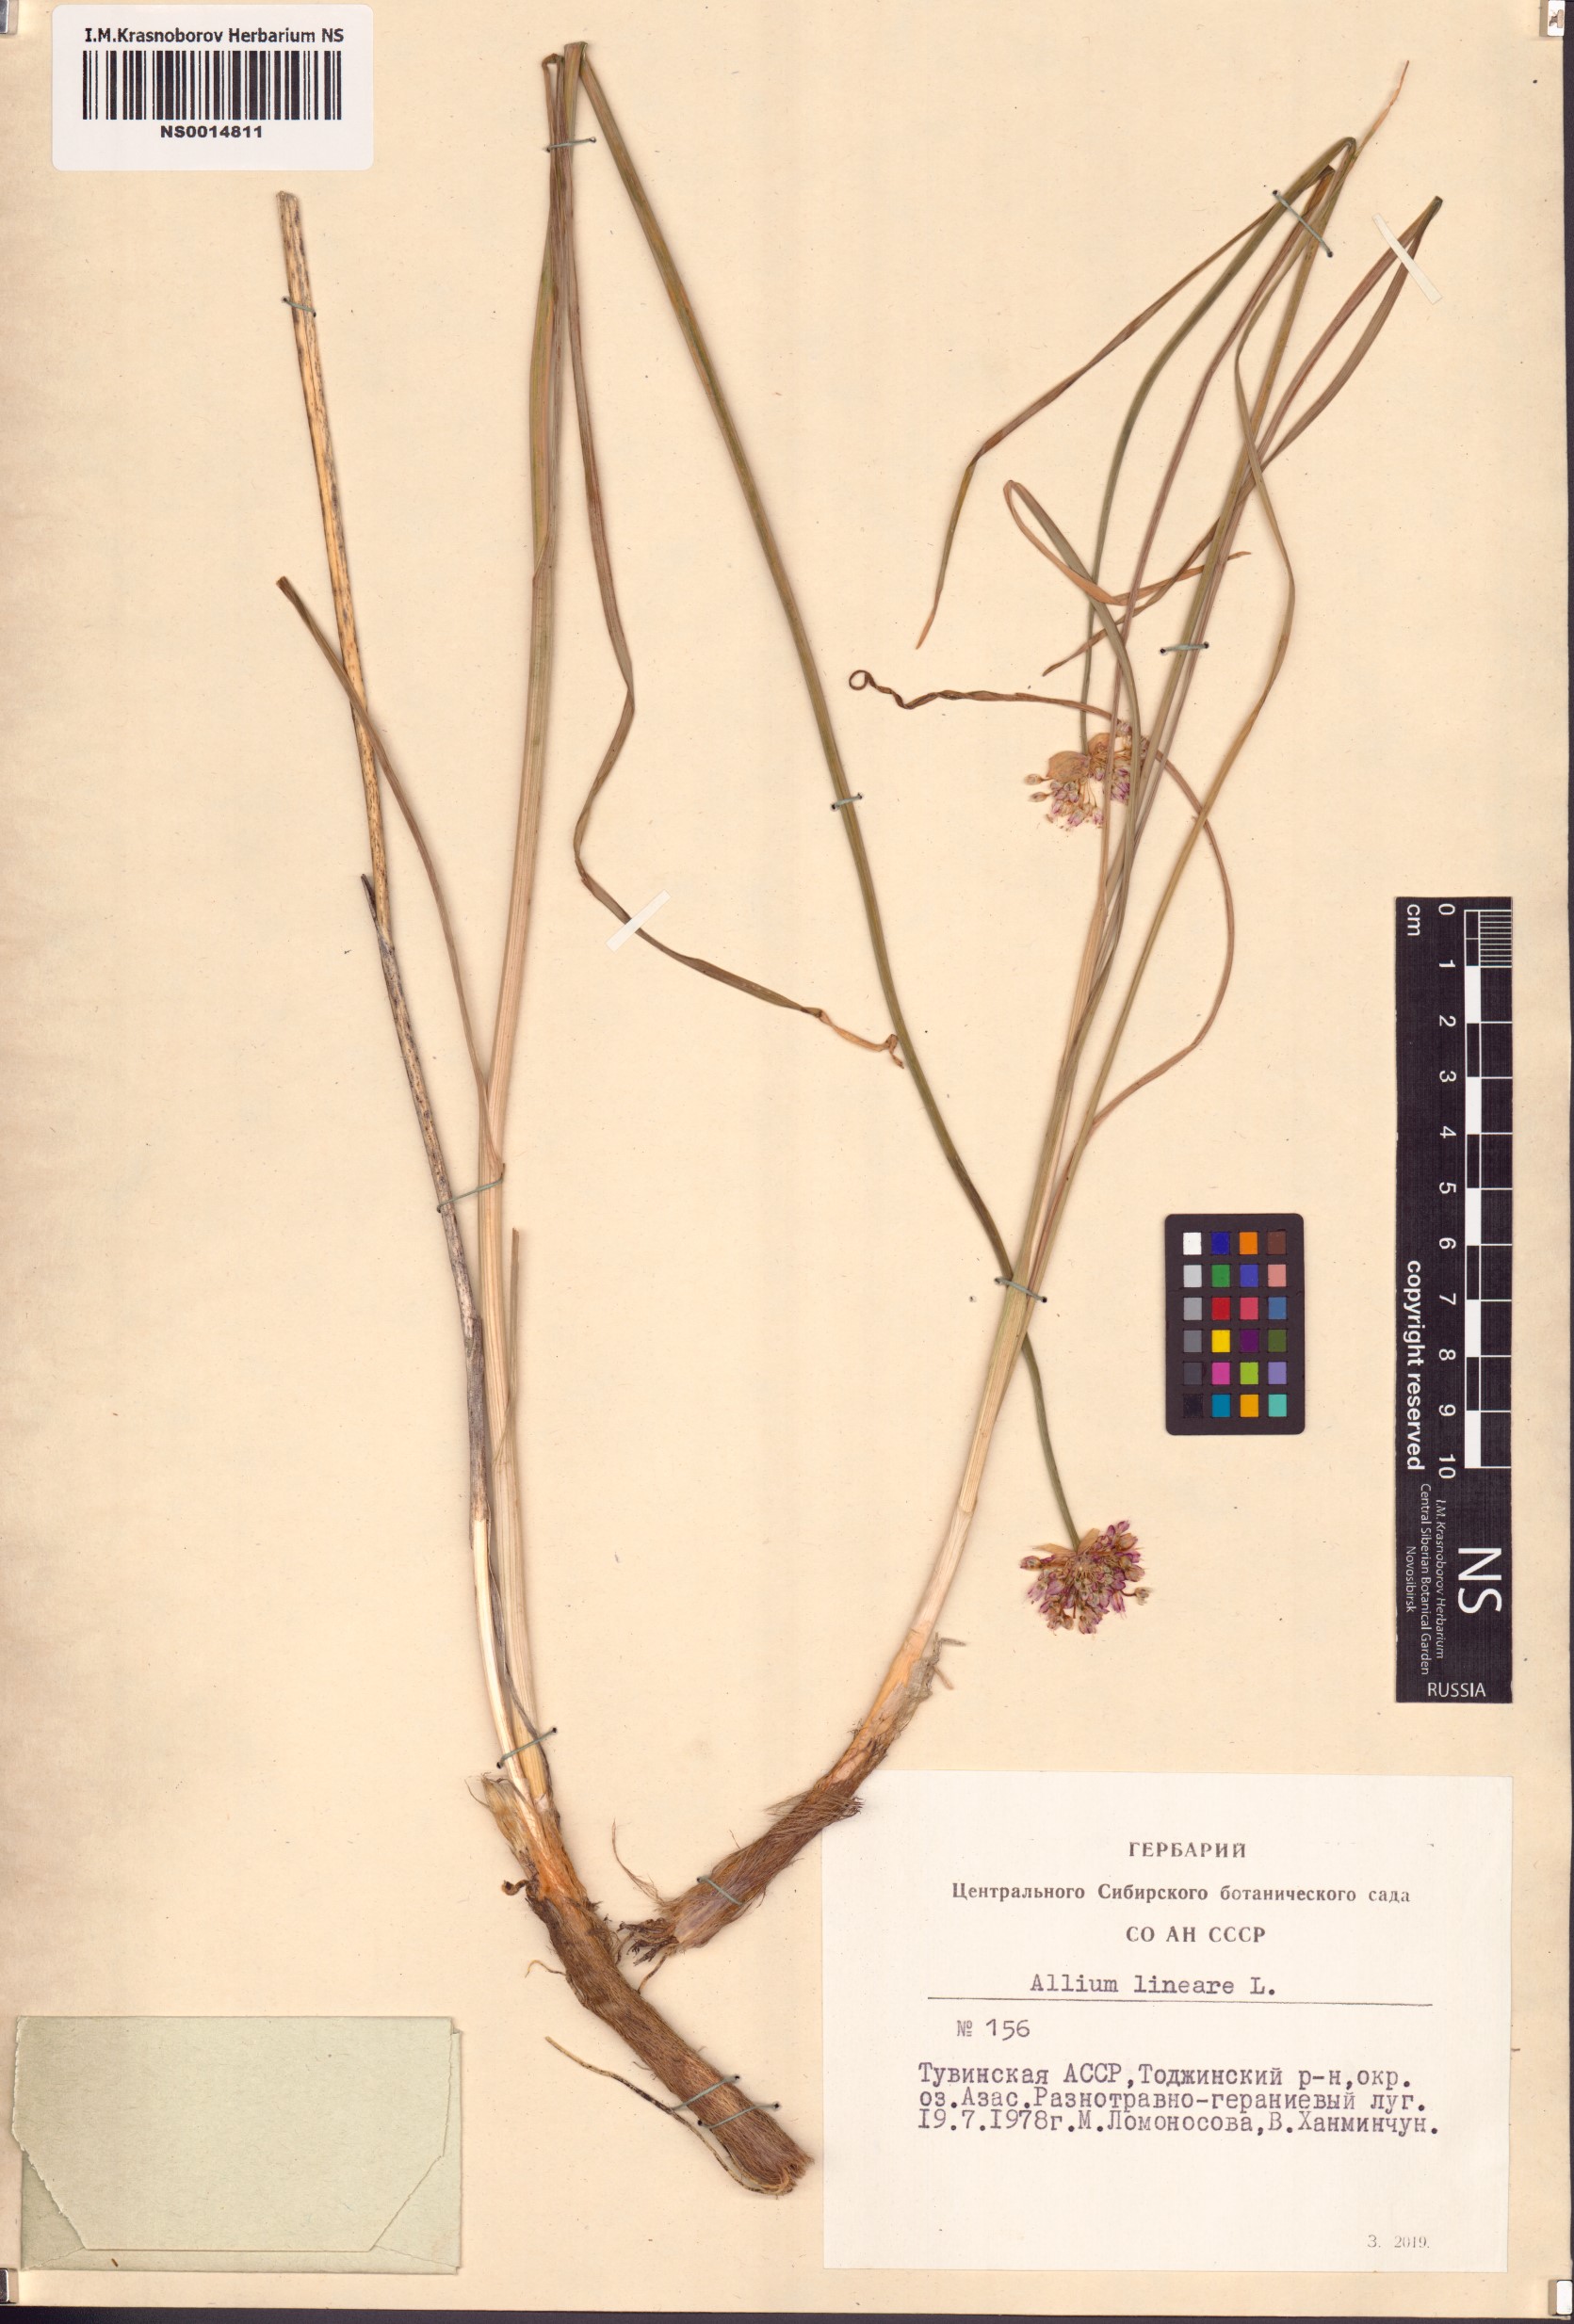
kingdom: Plantae
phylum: Tracheophyta
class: Liliopsida
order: Asparagales
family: Amaryllidaceae
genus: Allium
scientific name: Allium lineare
